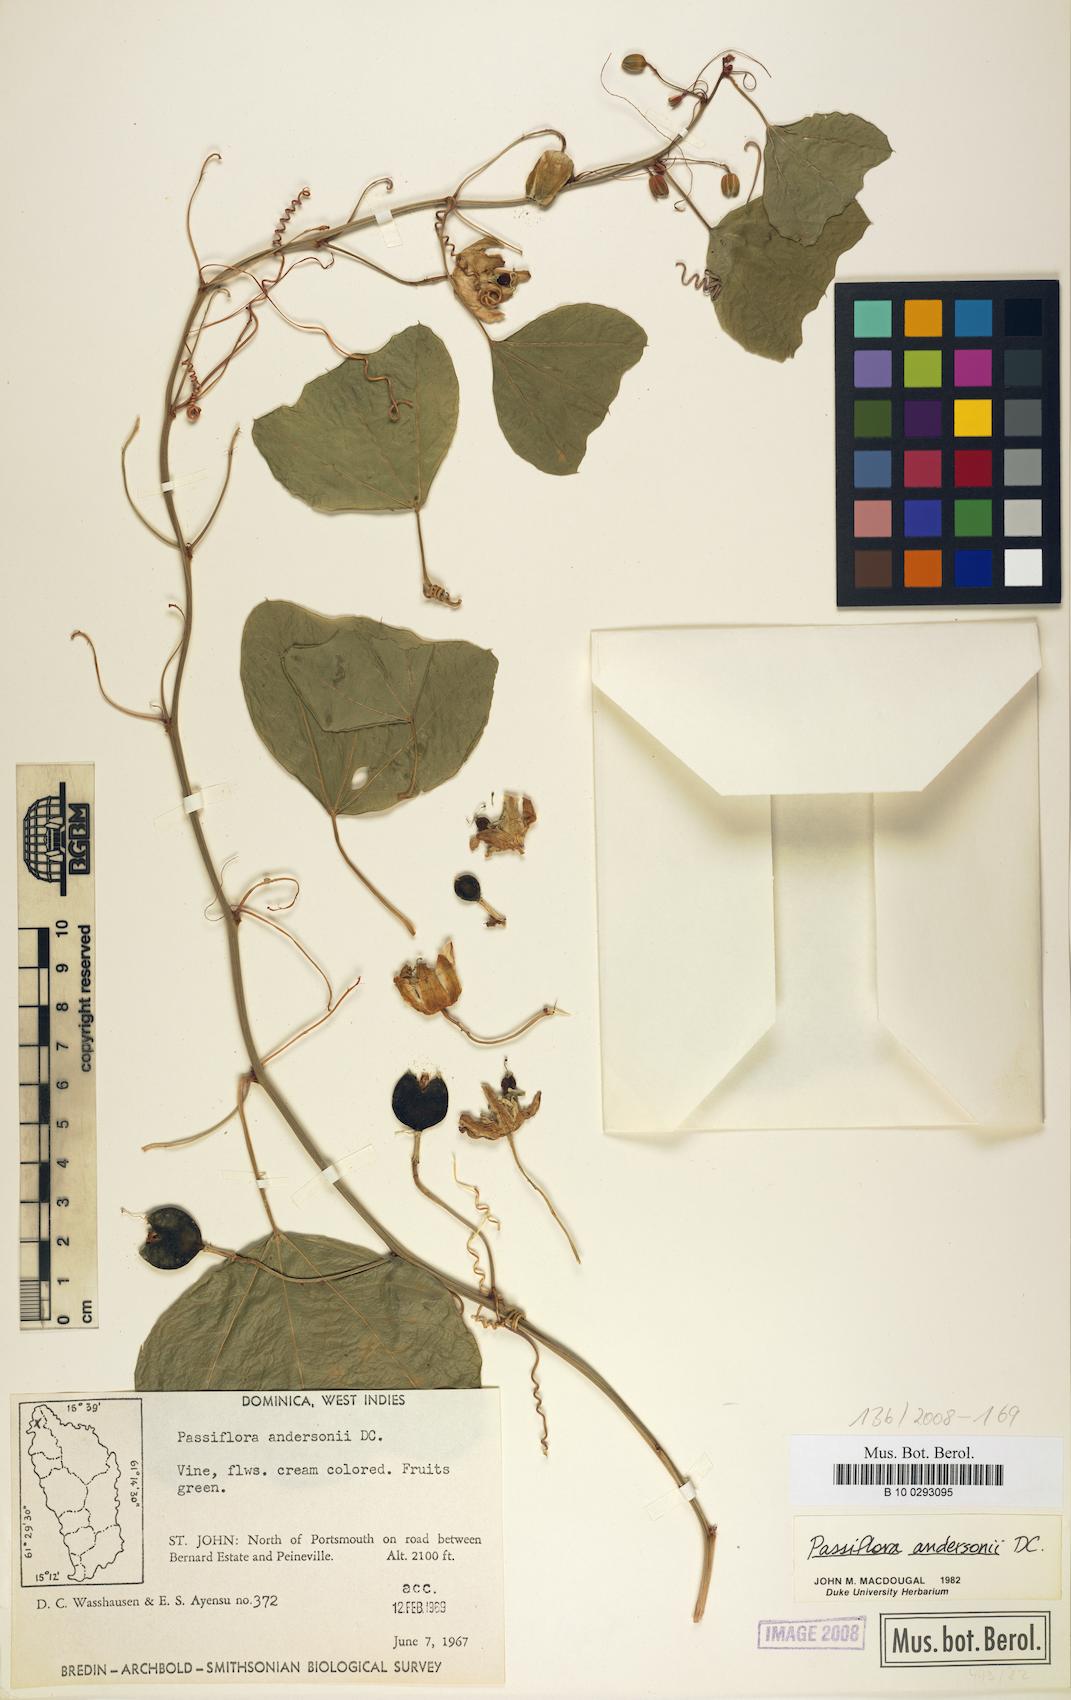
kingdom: Plantae
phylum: Tracheophyta
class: Magnoliopsida
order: Malpighiales
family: Passifloraceae
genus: Passiflora
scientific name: Passiflora andersonii
